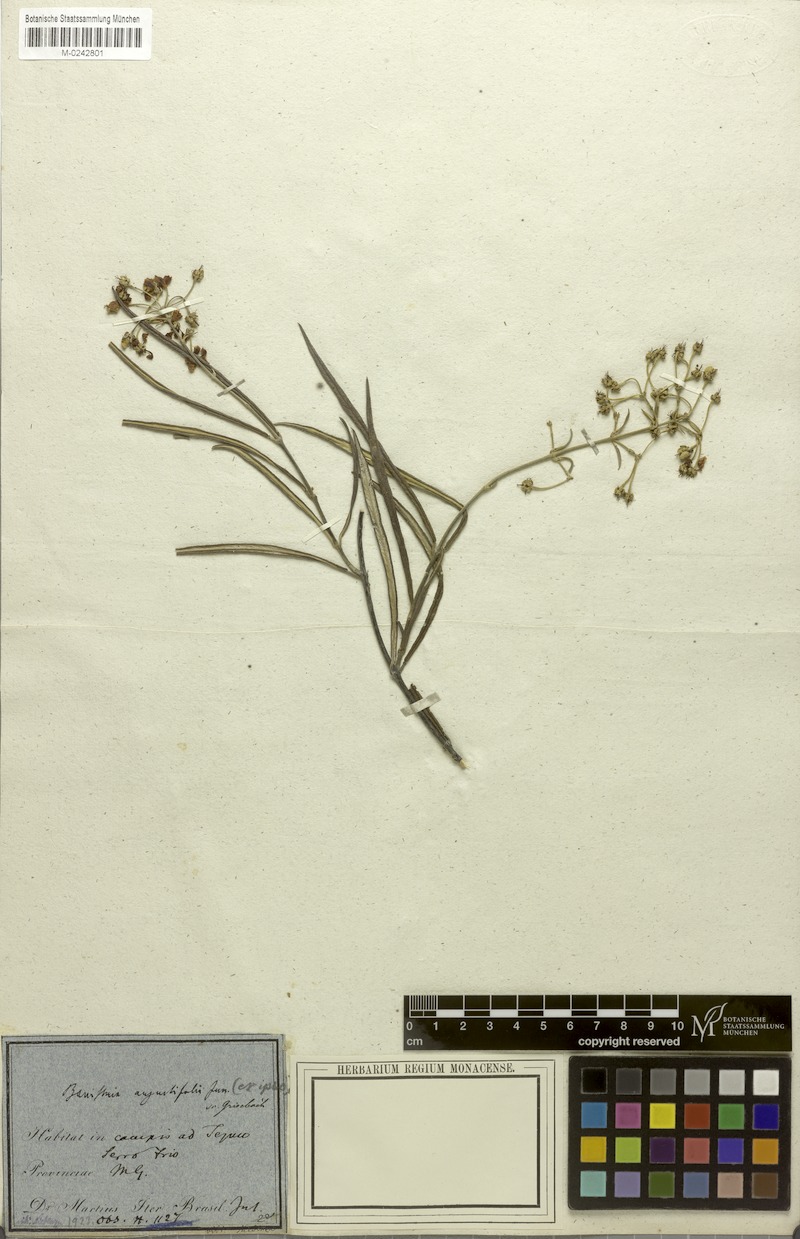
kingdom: Plantae
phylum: Tracheophyta
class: Magnoliopsida
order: Malpighiales
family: Malpighiaceae
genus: Banisteriopsis
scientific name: Banisteriopsis angustifolia
